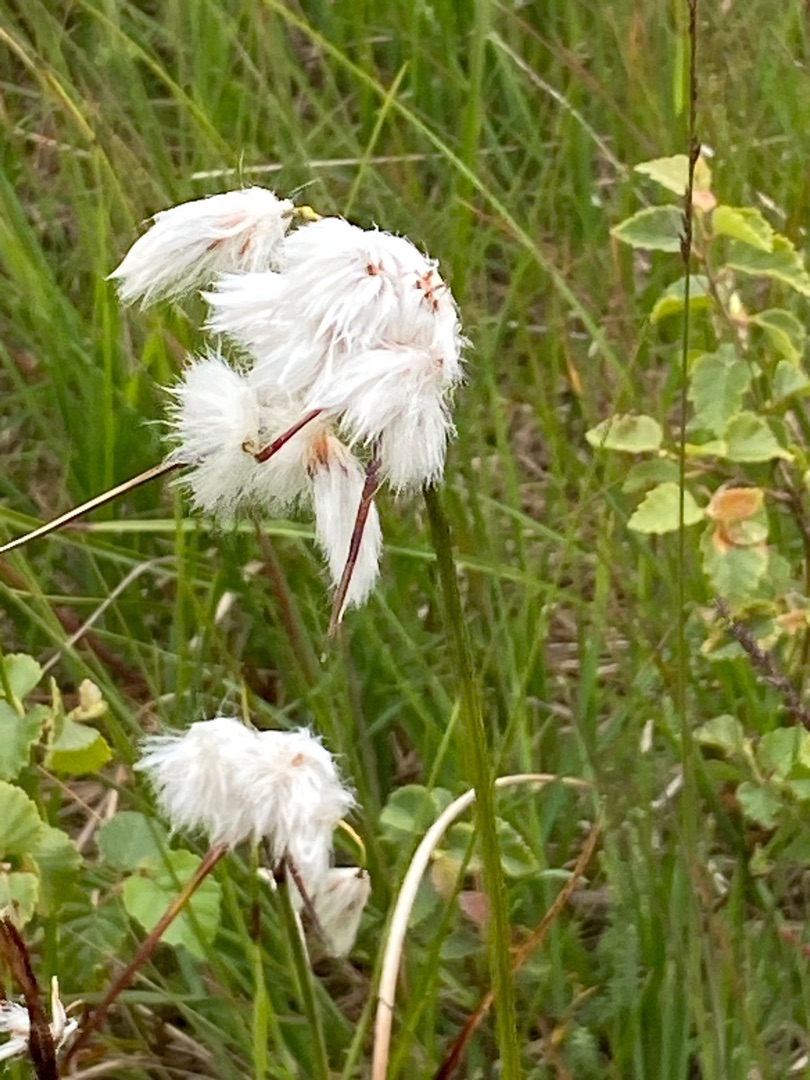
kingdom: Plantae
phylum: Tracheophyta
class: Liliopsida
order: Poales
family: Cyperaceae
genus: Eriophorum
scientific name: Eriophorum angustifolium
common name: Smalbladet kæruld
